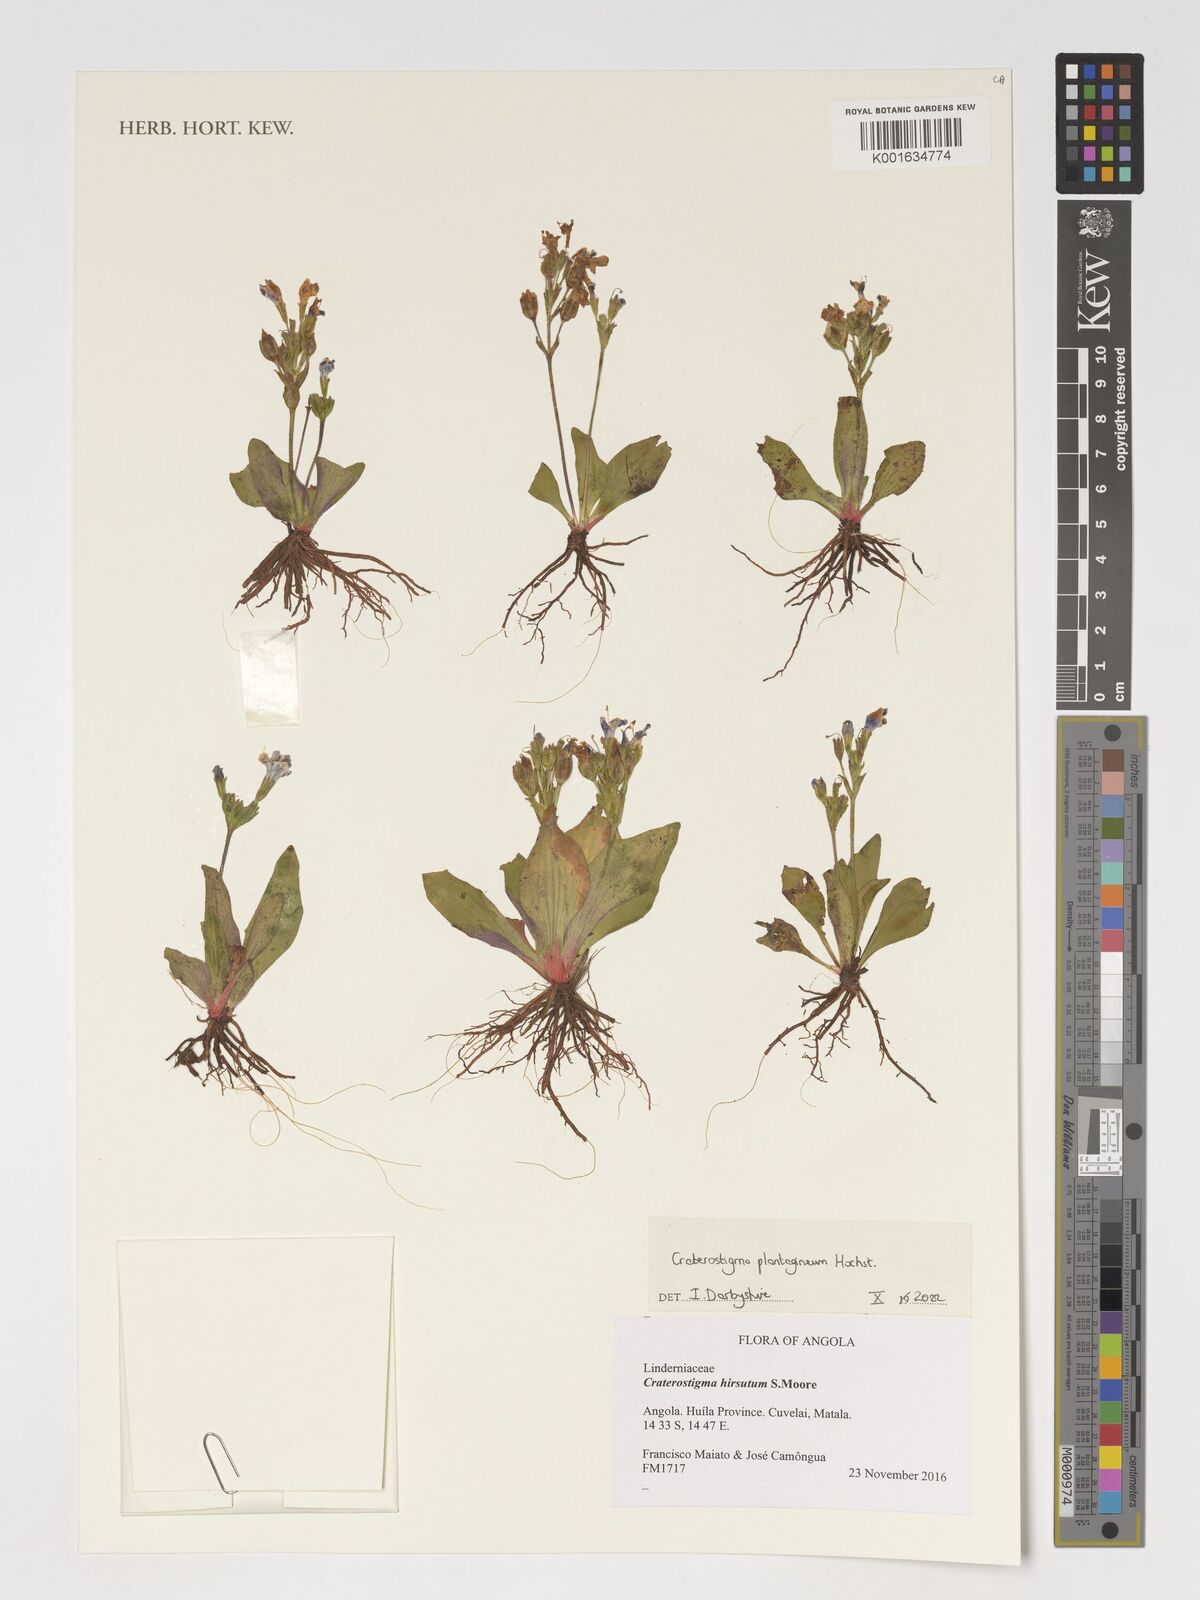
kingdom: Plantae
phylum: Tracheophyta
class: Magnoliopsida
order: Lamiales
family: Linderniaceae
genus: Craterostigma
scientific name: Craterostigma plantagineum
